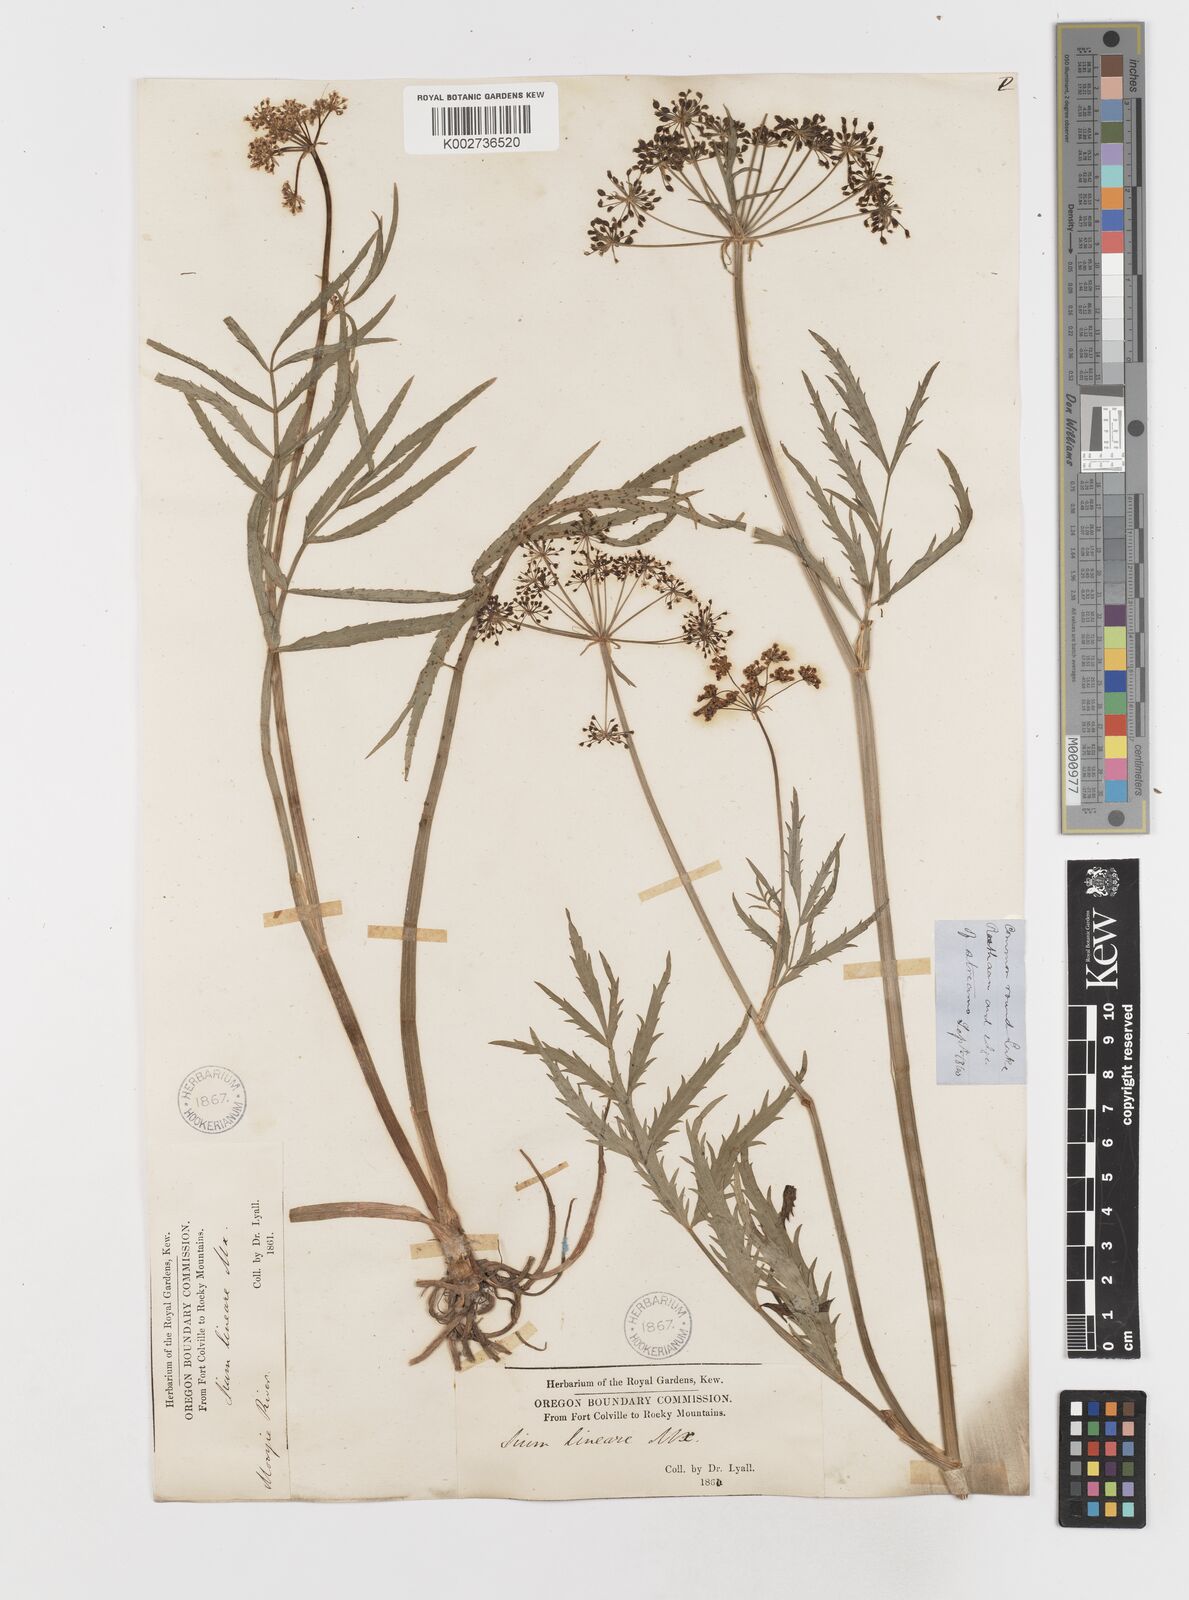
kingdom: Plantae
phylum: Tracheophyta
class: Magnoliopsida
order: Apiales
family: Apiaceae
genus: Sium
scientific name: Sium suave
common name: Hemlock water-parsnip
